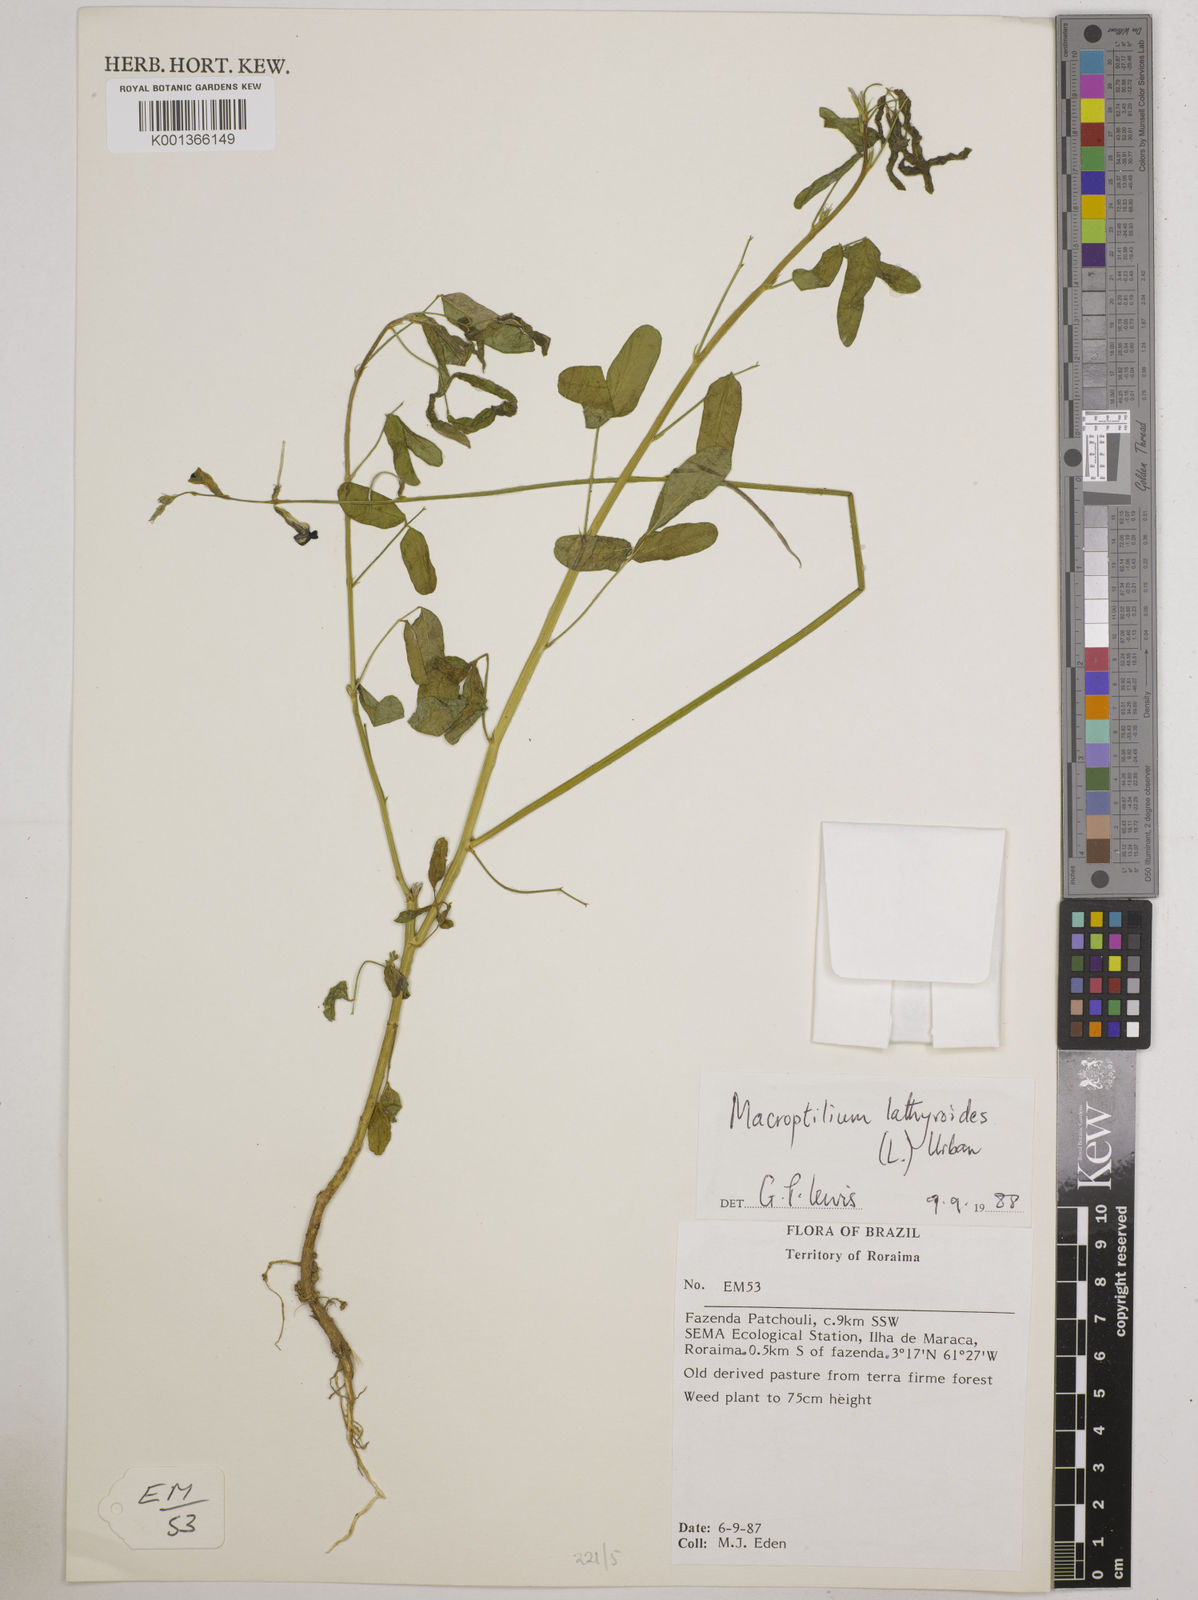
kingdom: Plantae
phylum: Tracheophyta
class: Magnoliopsida
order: Fabales
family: Fabaceae
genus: Macroptilium
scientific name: Macroptilium lathyroides
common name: Wild bushbean
